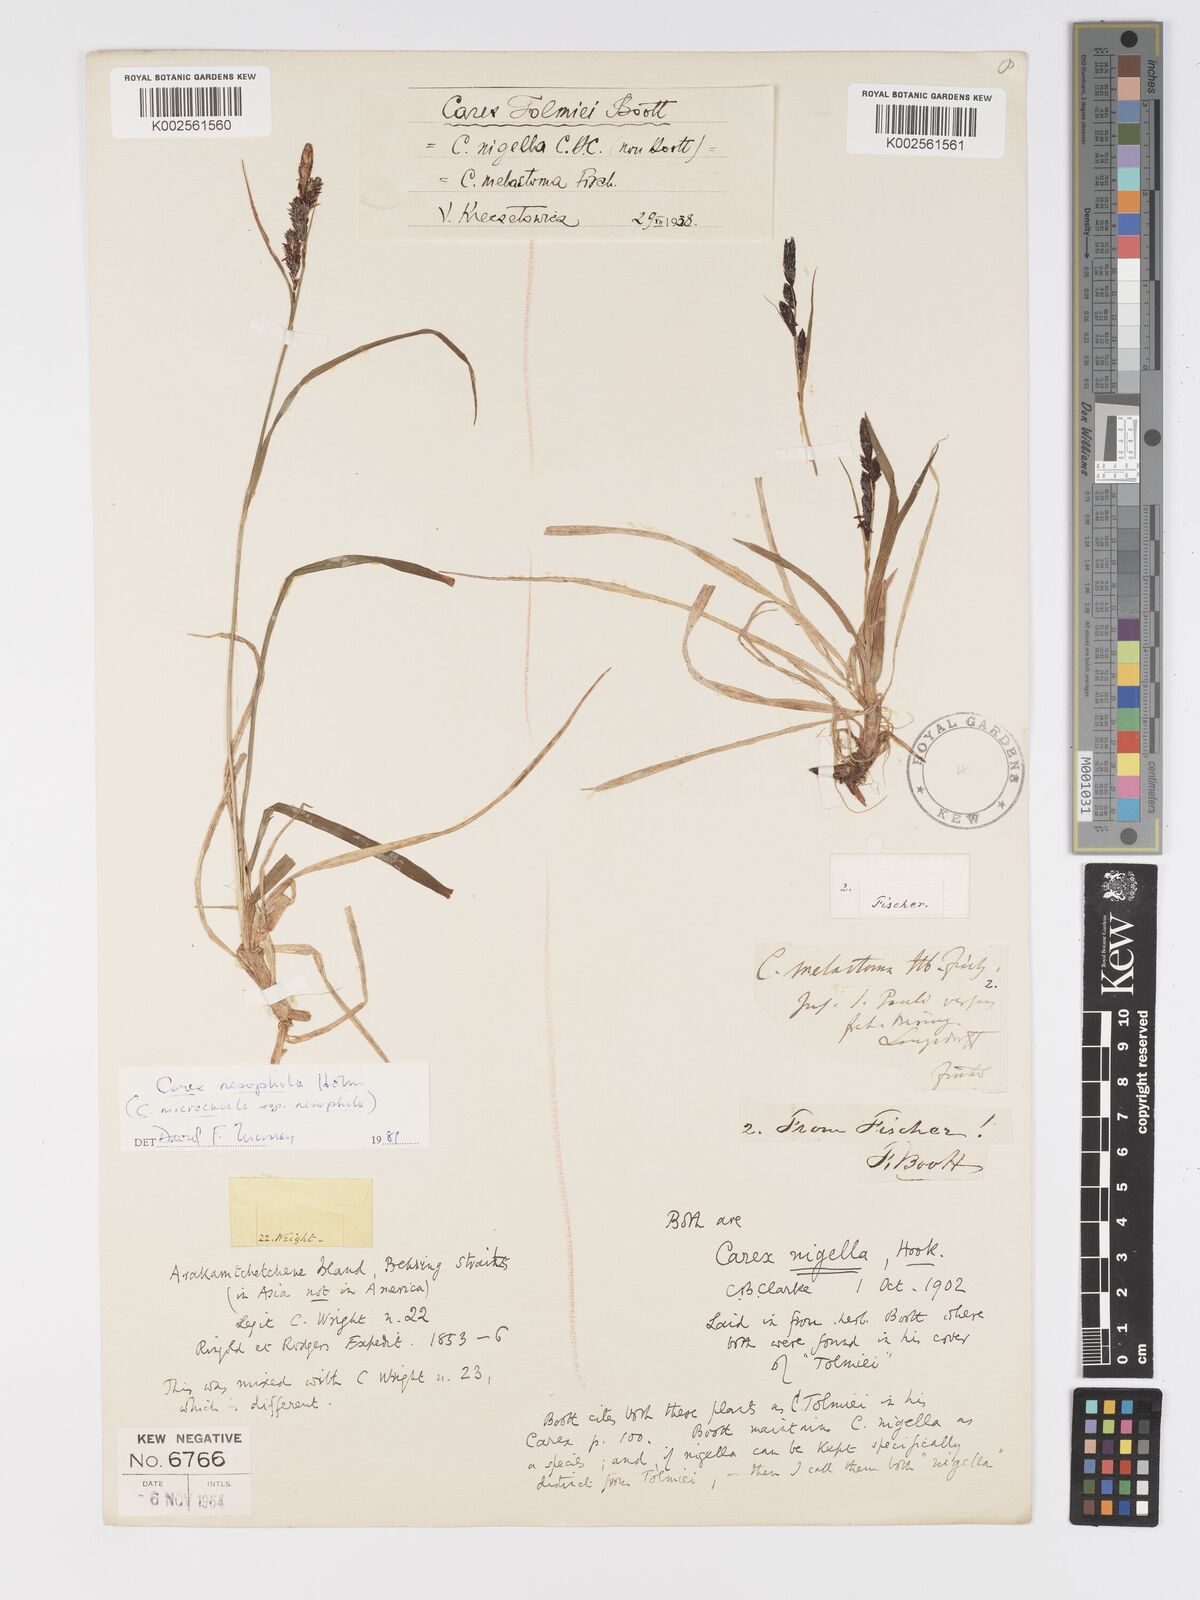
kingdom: Plantae
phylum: Tracheophyta
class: Liliopsida
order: Poales
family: Cyperaceae
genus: Carex
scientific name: Carex microchaeta
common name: Bering sea sedge
